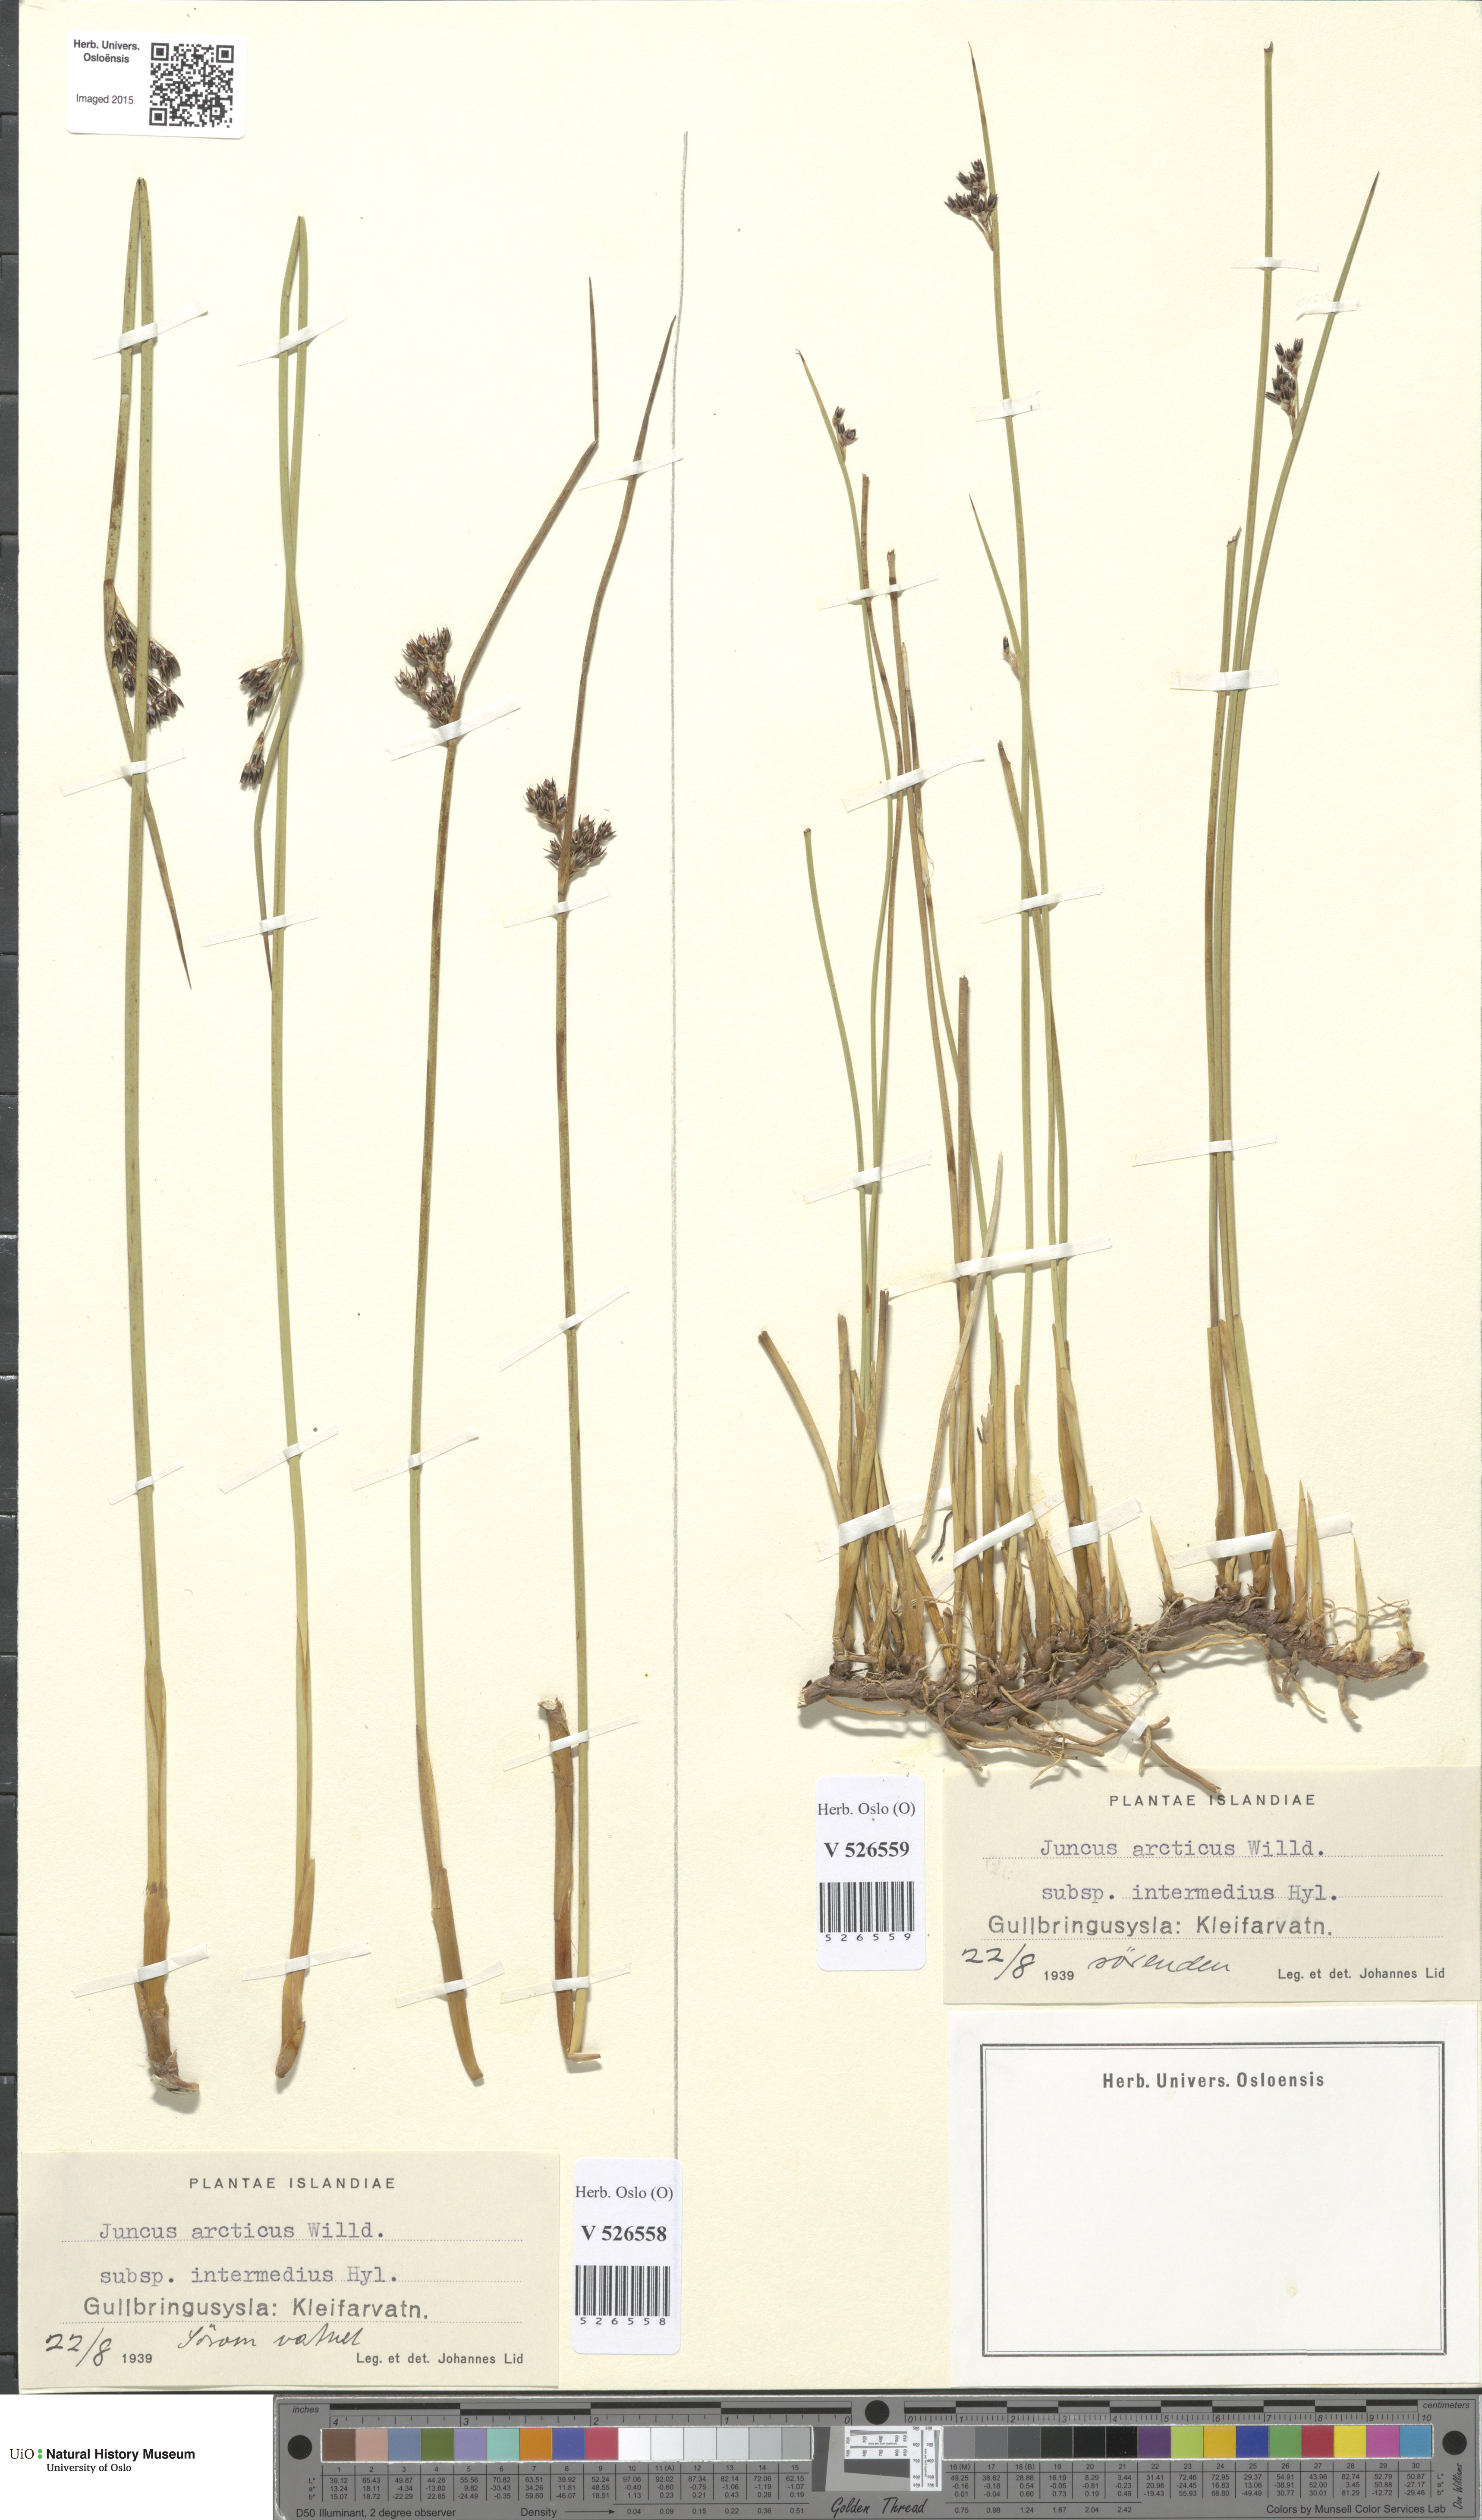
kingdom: Plantae
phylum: Tracheophyta
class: Liliopsida
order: Poales
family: Juncaceae
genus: Juncus
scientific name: Juncus arcticus
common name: Arctic rush
